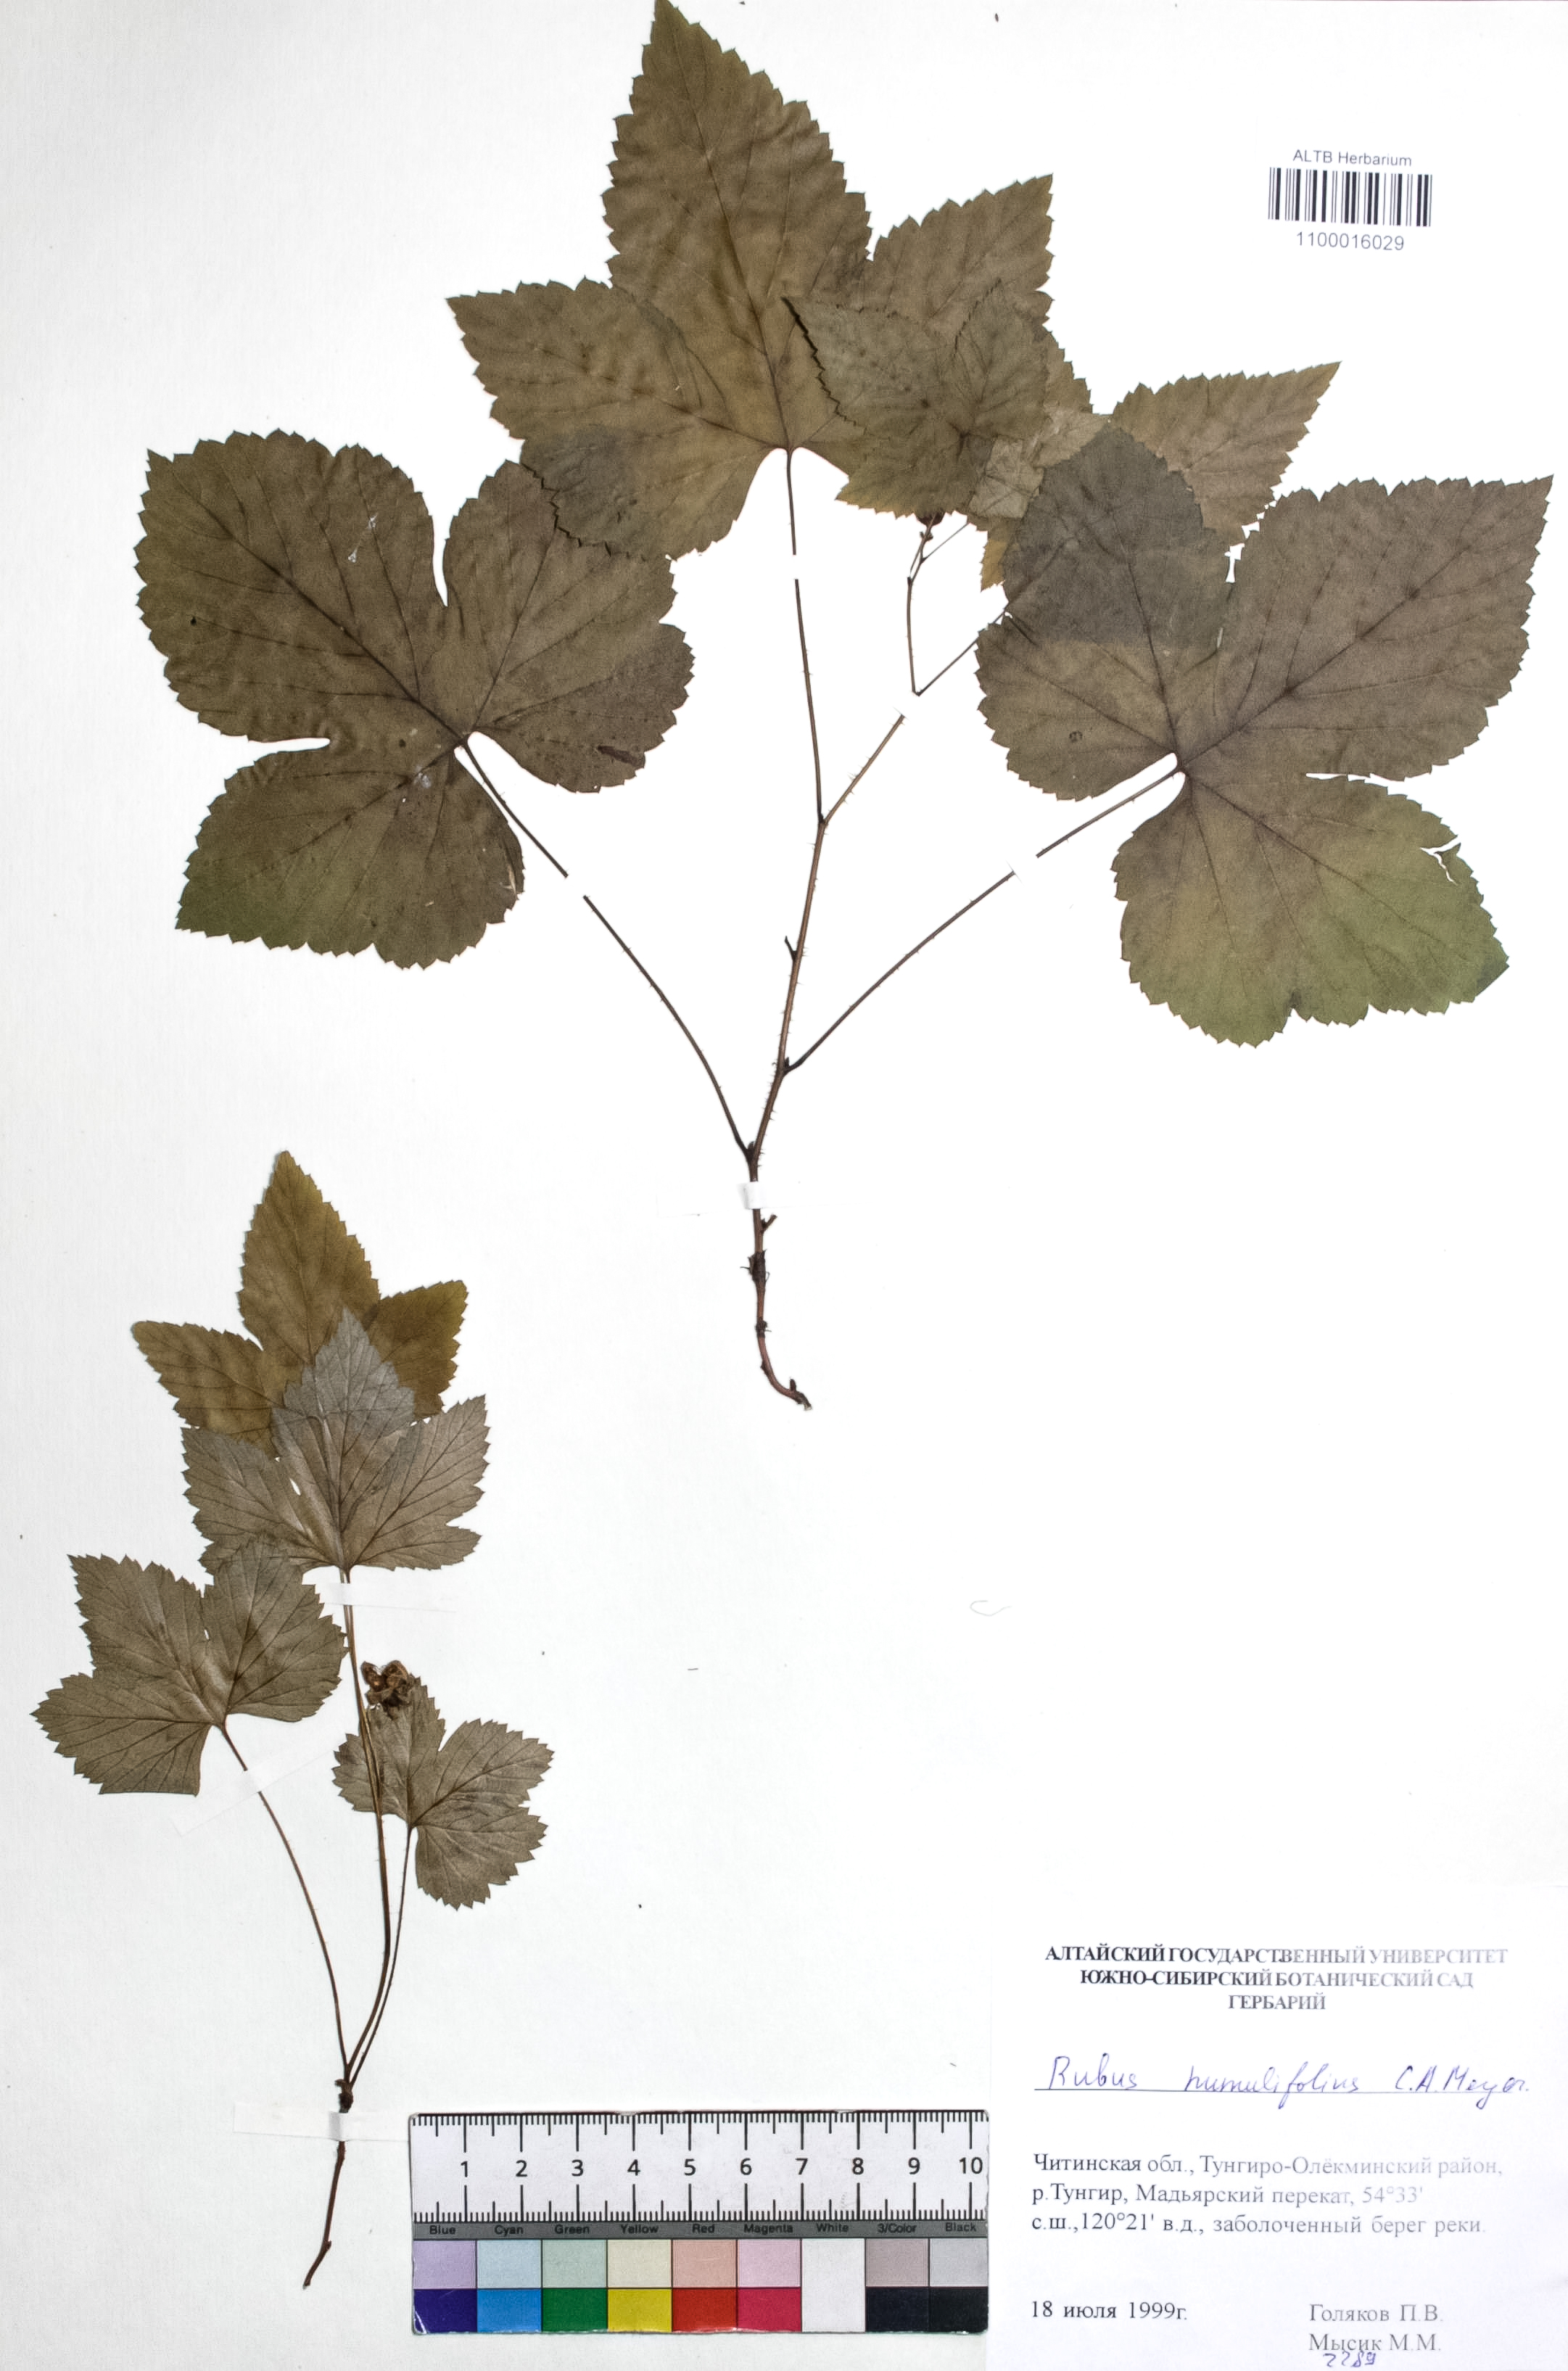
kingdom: Plantae
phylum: Tracheophyta
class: Magnoliopsida
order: Rosales
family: Rosaceae
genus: Rubus
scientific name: Rubus humulifolius
